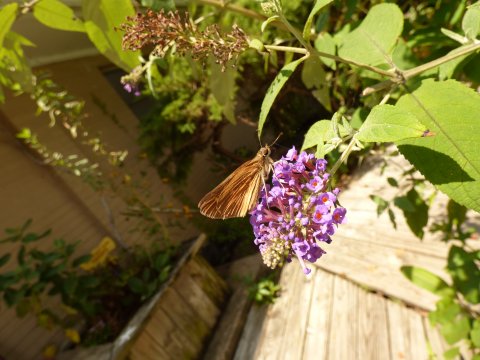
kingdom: Animalia
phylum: Arthropoda
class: Insecta
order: Lepidoptera
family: Hesperiidae
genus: Poanes
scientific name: Poanes viator
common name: Broad-winged Skipper
